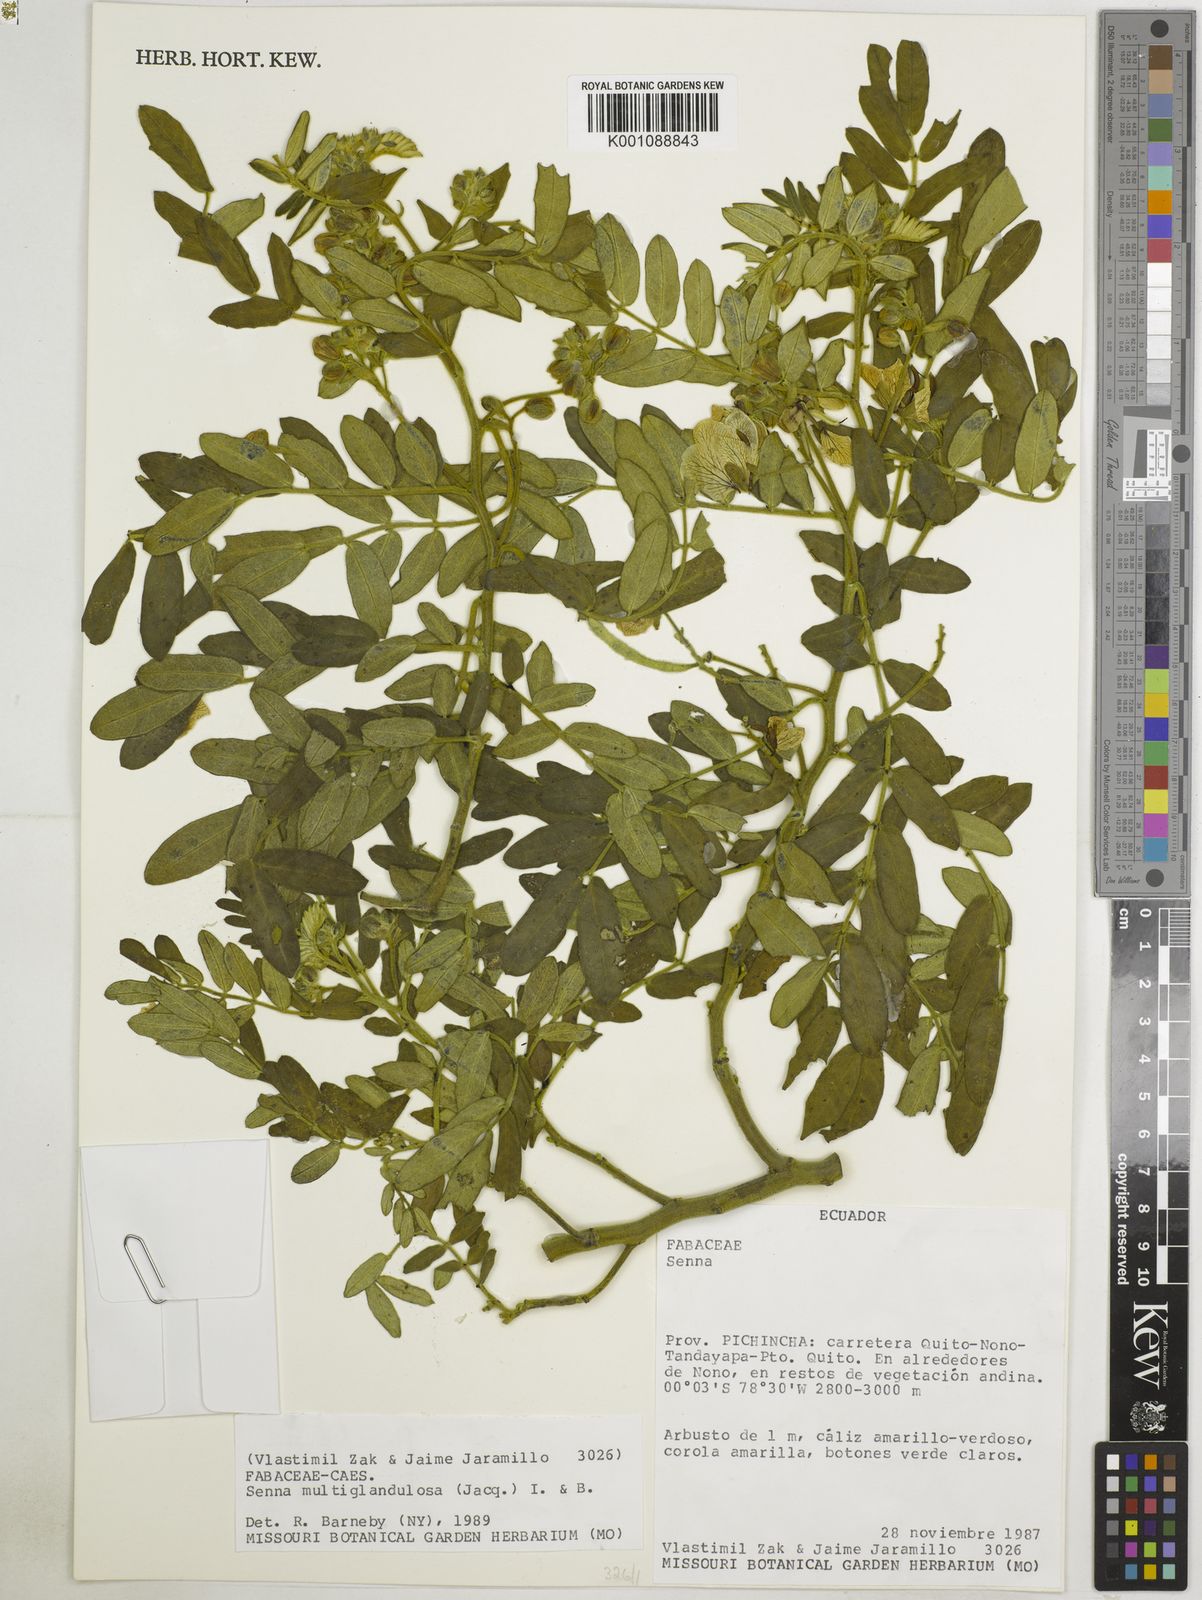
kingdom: Plantae
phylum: Tracheophyta
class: Magnoliopsida
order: Fabales
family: Fabaceae
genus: Senna
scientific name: Senna
